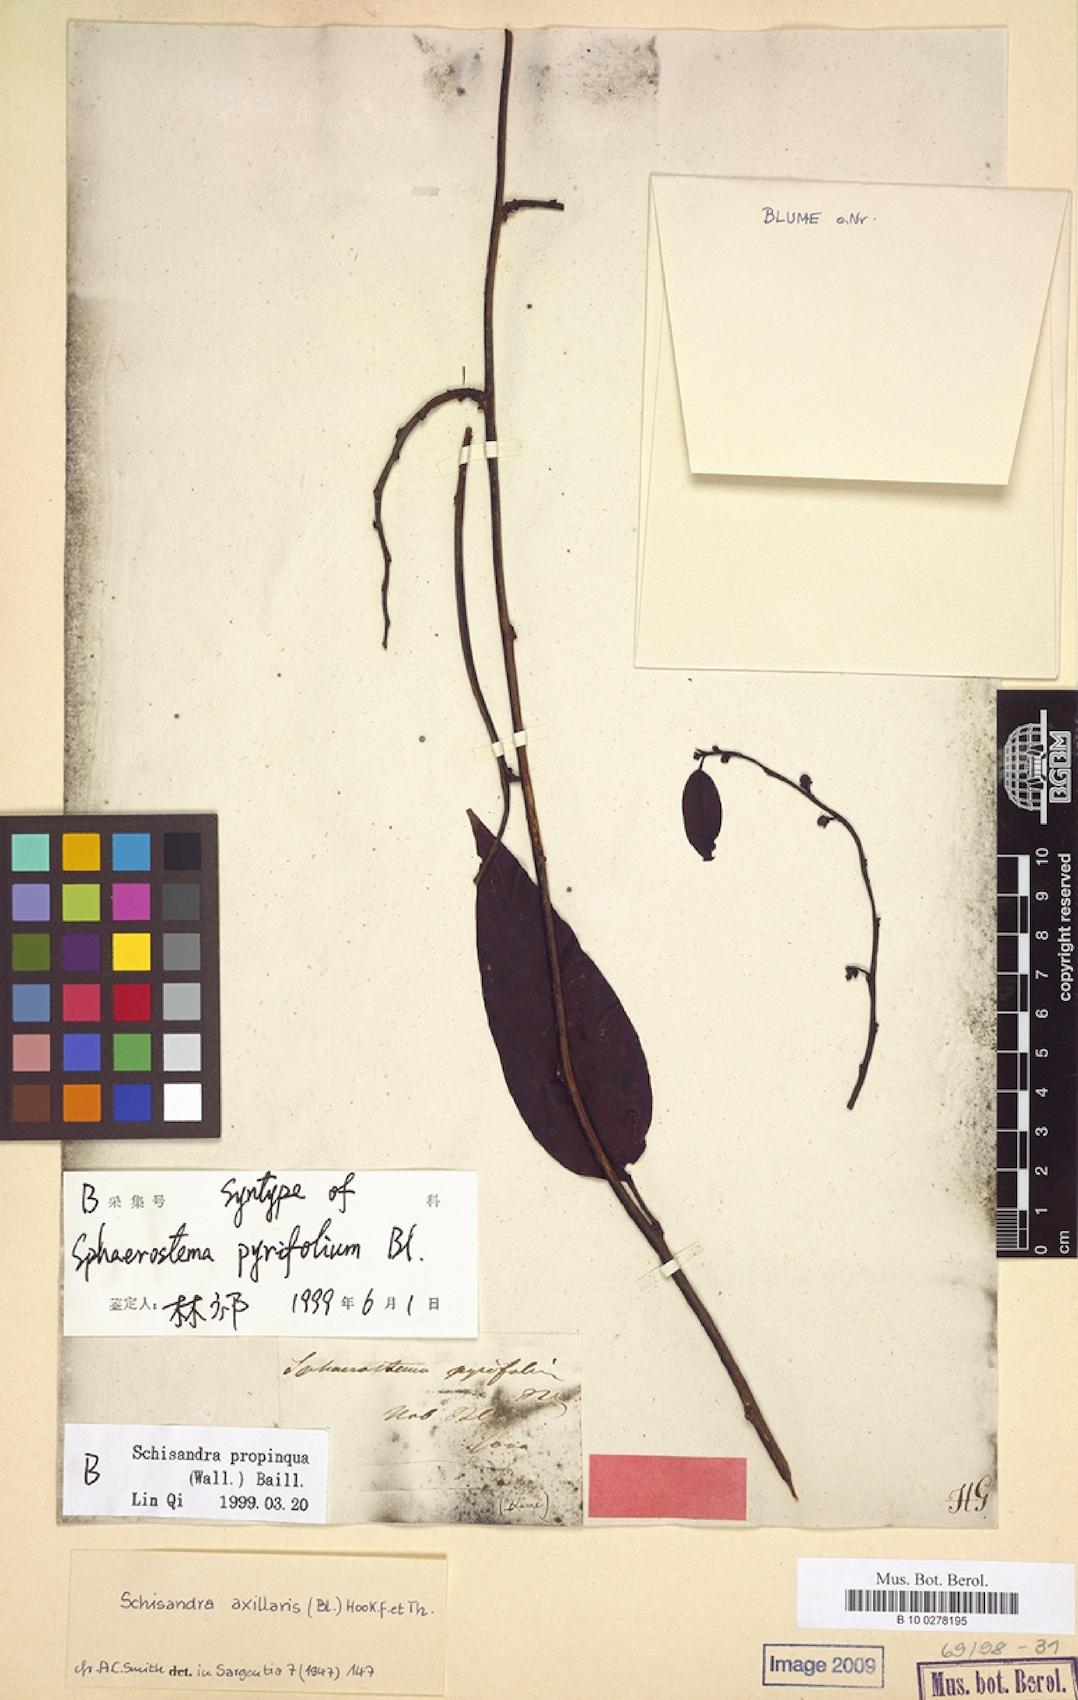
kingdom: Plantae
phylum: Tracheophyta
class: Magnoliopsida
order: Austrobaileyales
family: Schisandraceae
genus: Schisandra
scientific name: Schisandra propinqua
